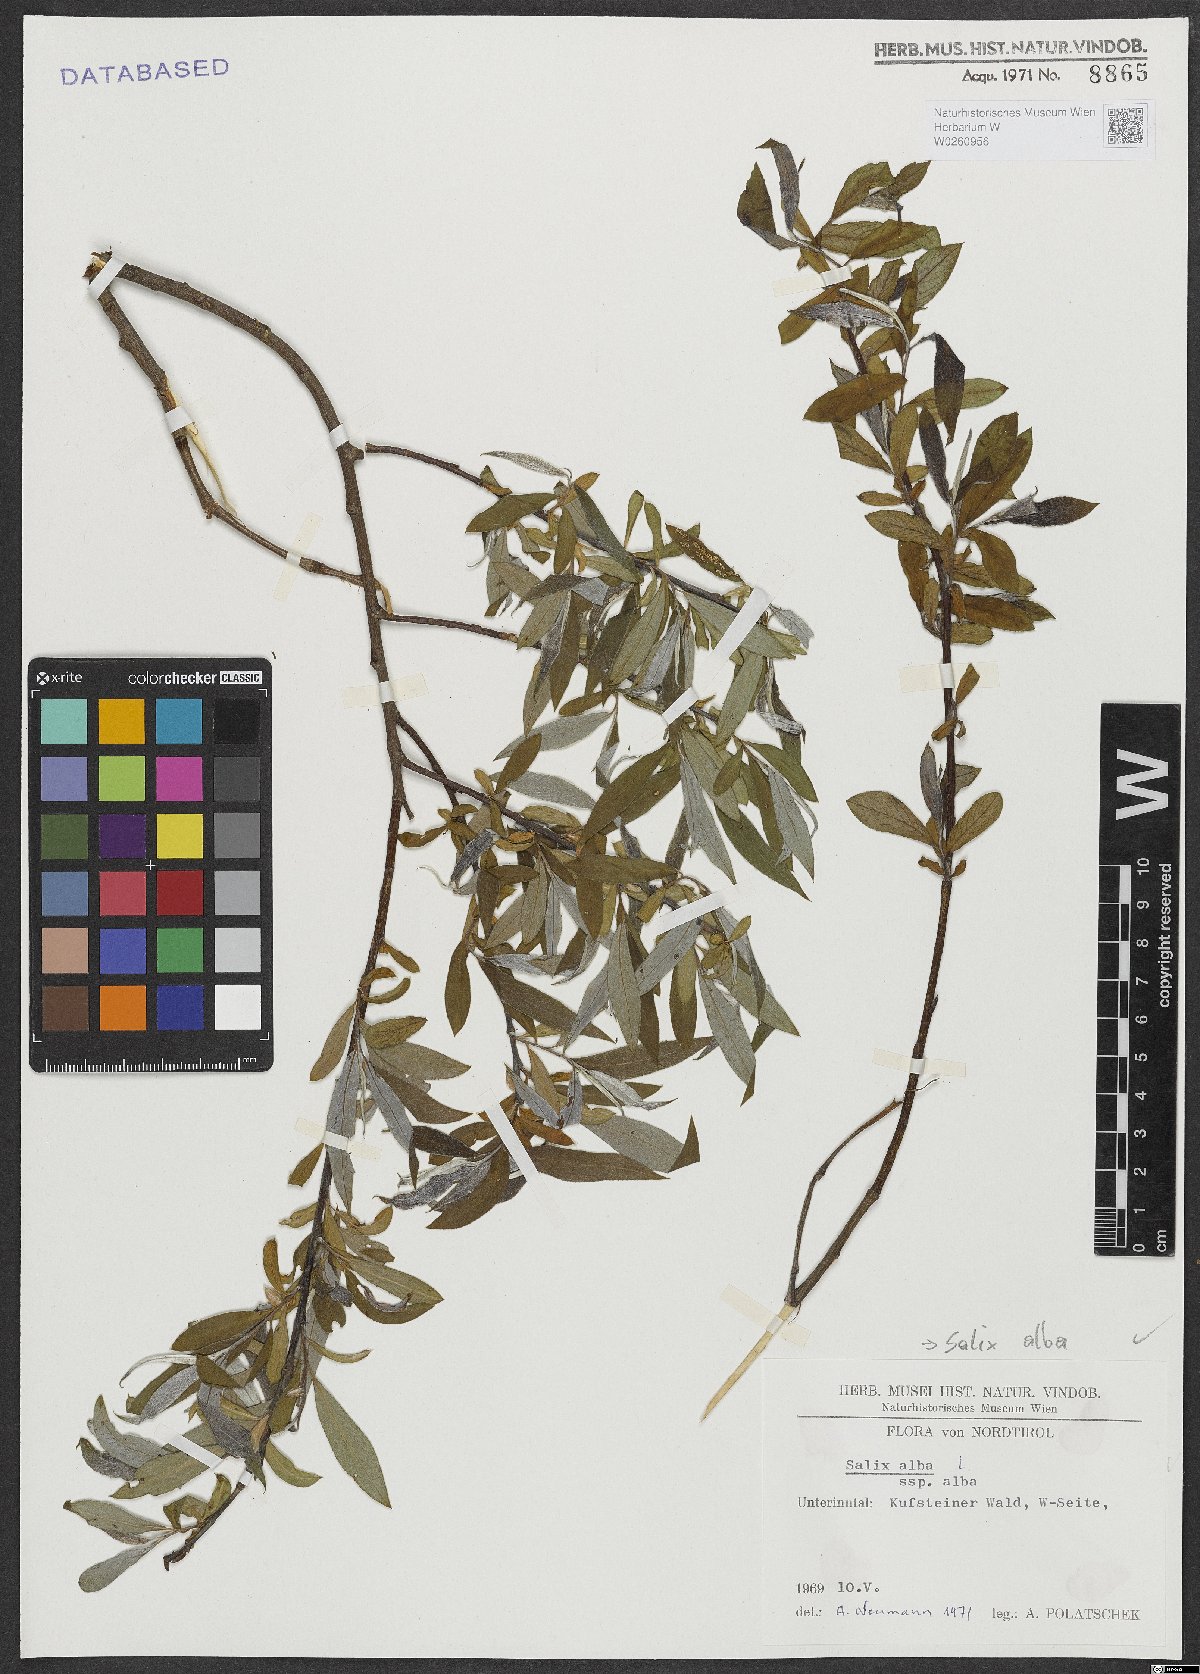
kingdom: Plantae
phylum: Tracheophyta
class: Magnoliopsida
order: Malpighiales
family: Salicaceae
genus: Salix
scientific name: Salix alba
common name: White willow
